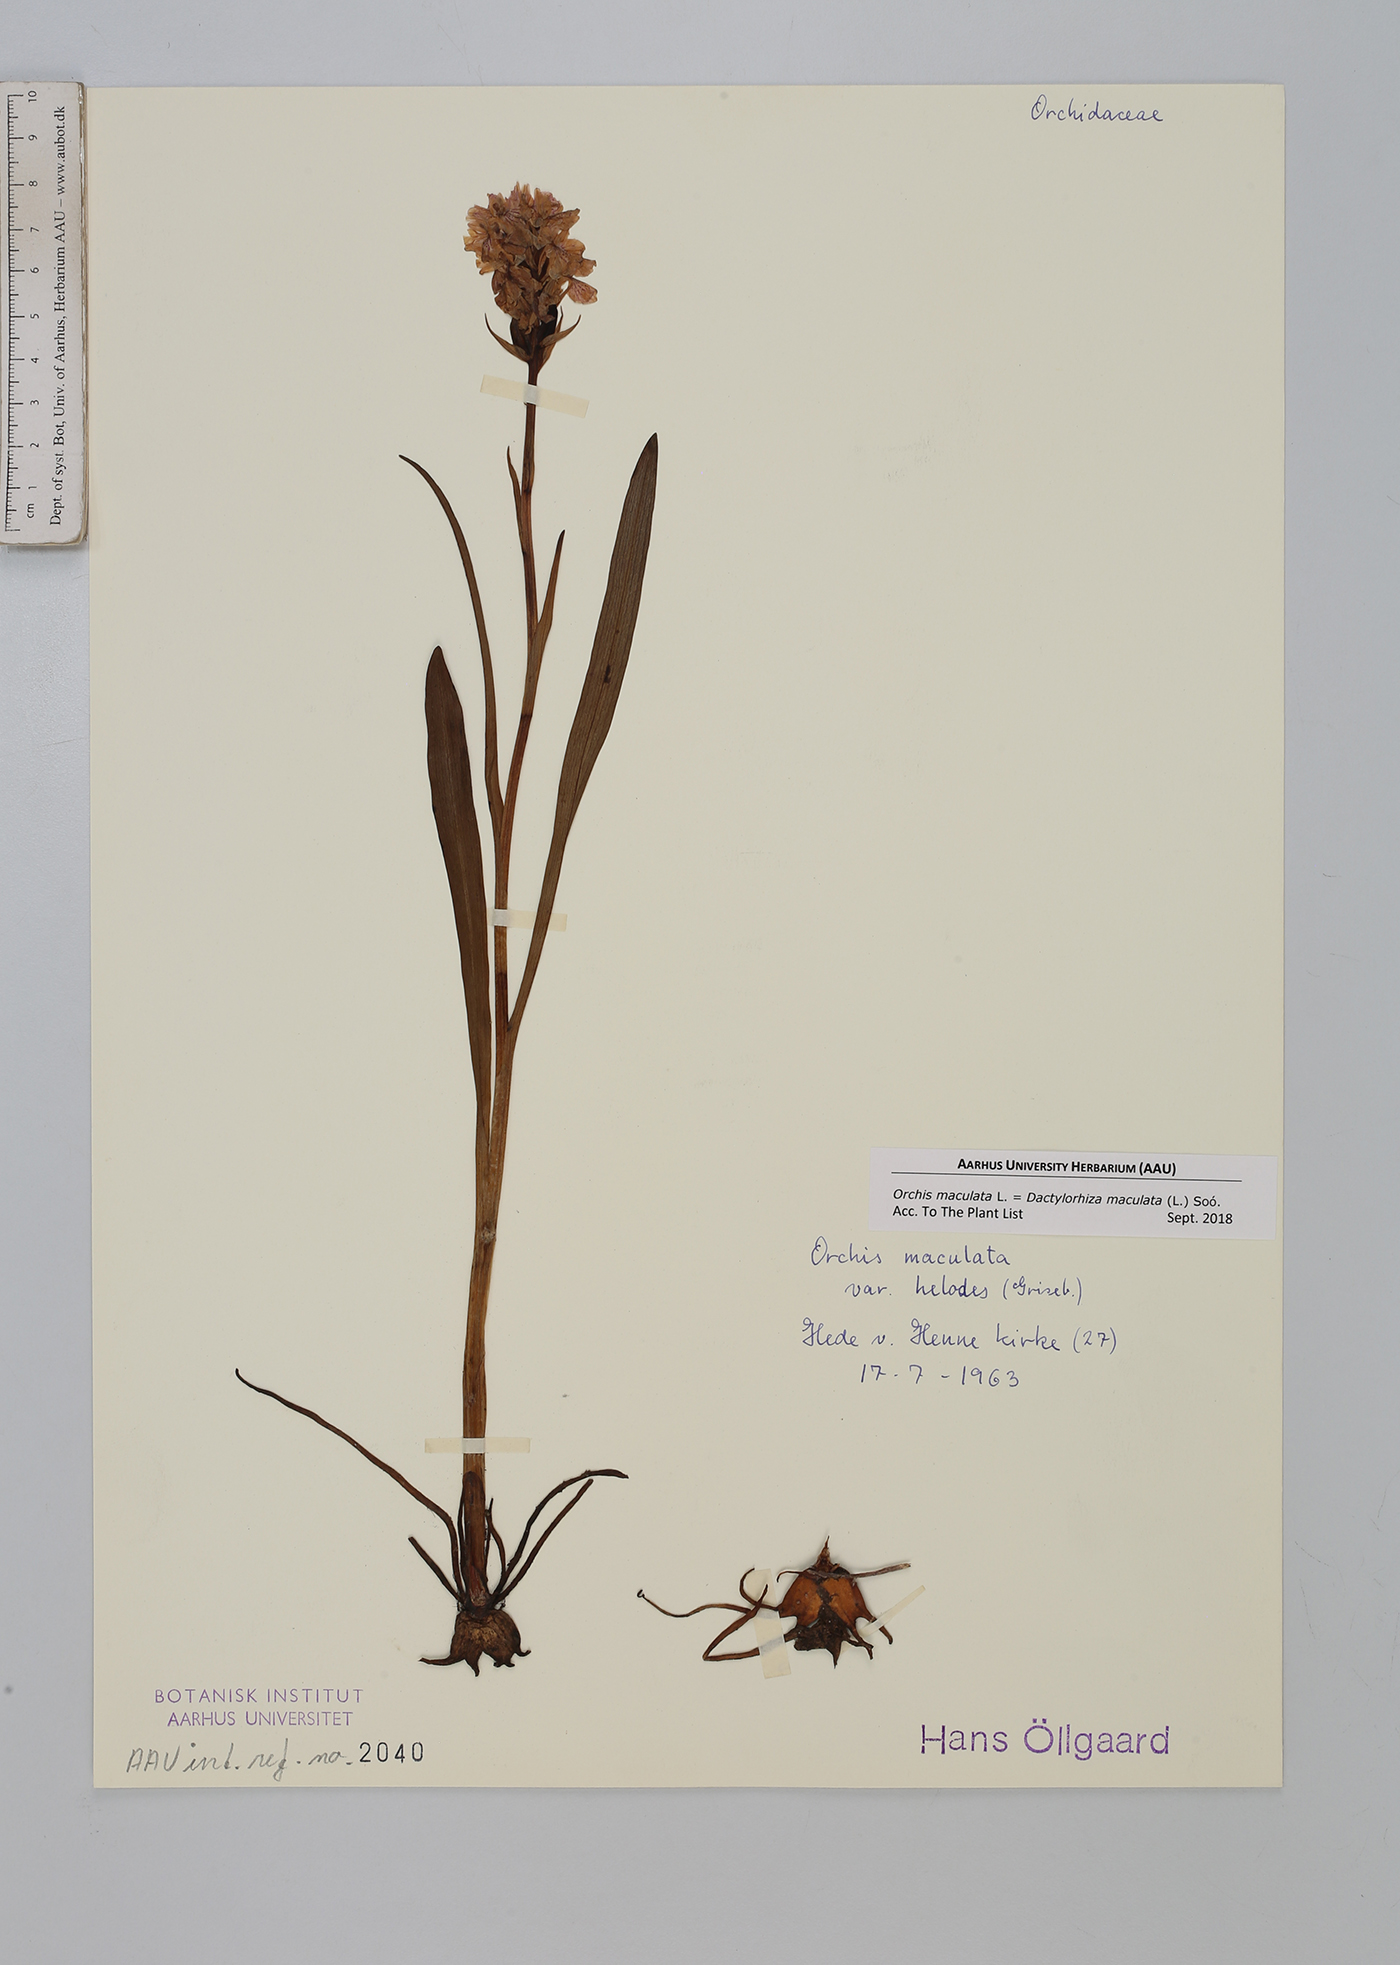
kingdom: Plantae
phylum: Tracheophyta
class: Liliopsida
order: Asparagales
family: Orchidaceae
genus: Dactylorhiza
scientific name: Dactylorhiza maculata
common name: Heath spotted-orchid
